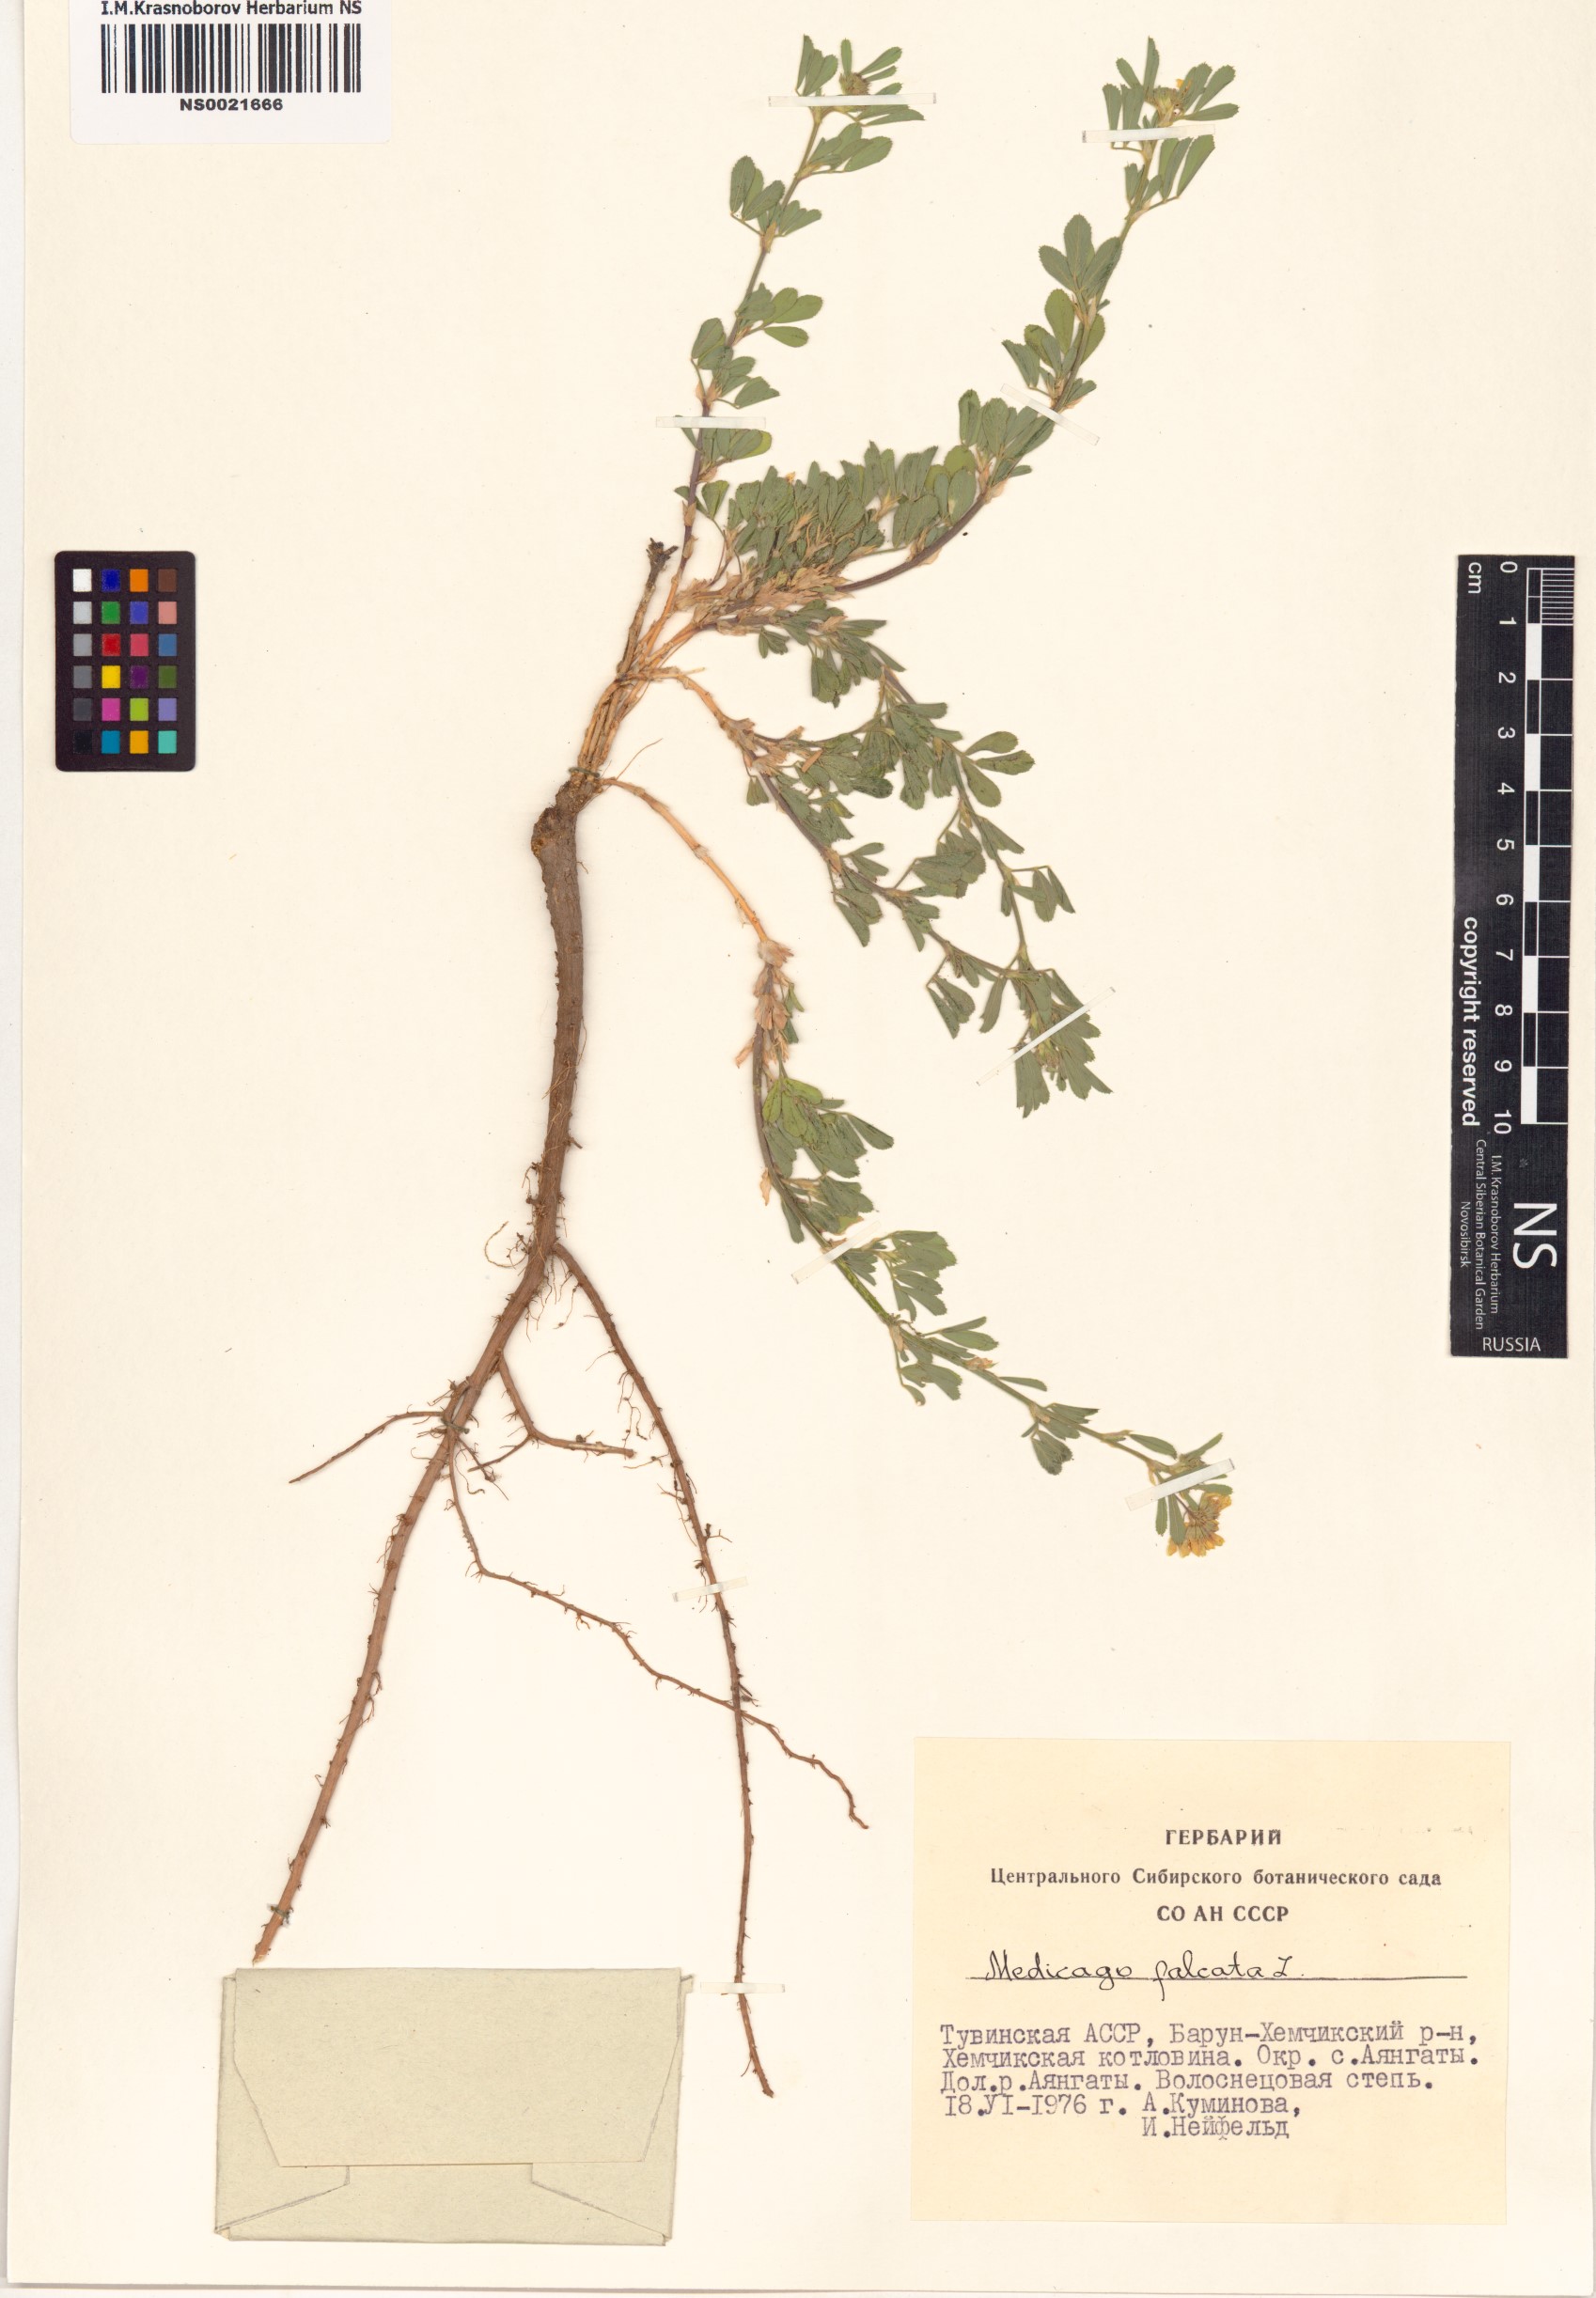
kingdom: Plantae
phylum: Tracheophyta
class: Magnoliopsida
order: Fabales
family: Fabaceae
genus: Medicago
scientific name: Medicago falcata
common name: Sickle medick
